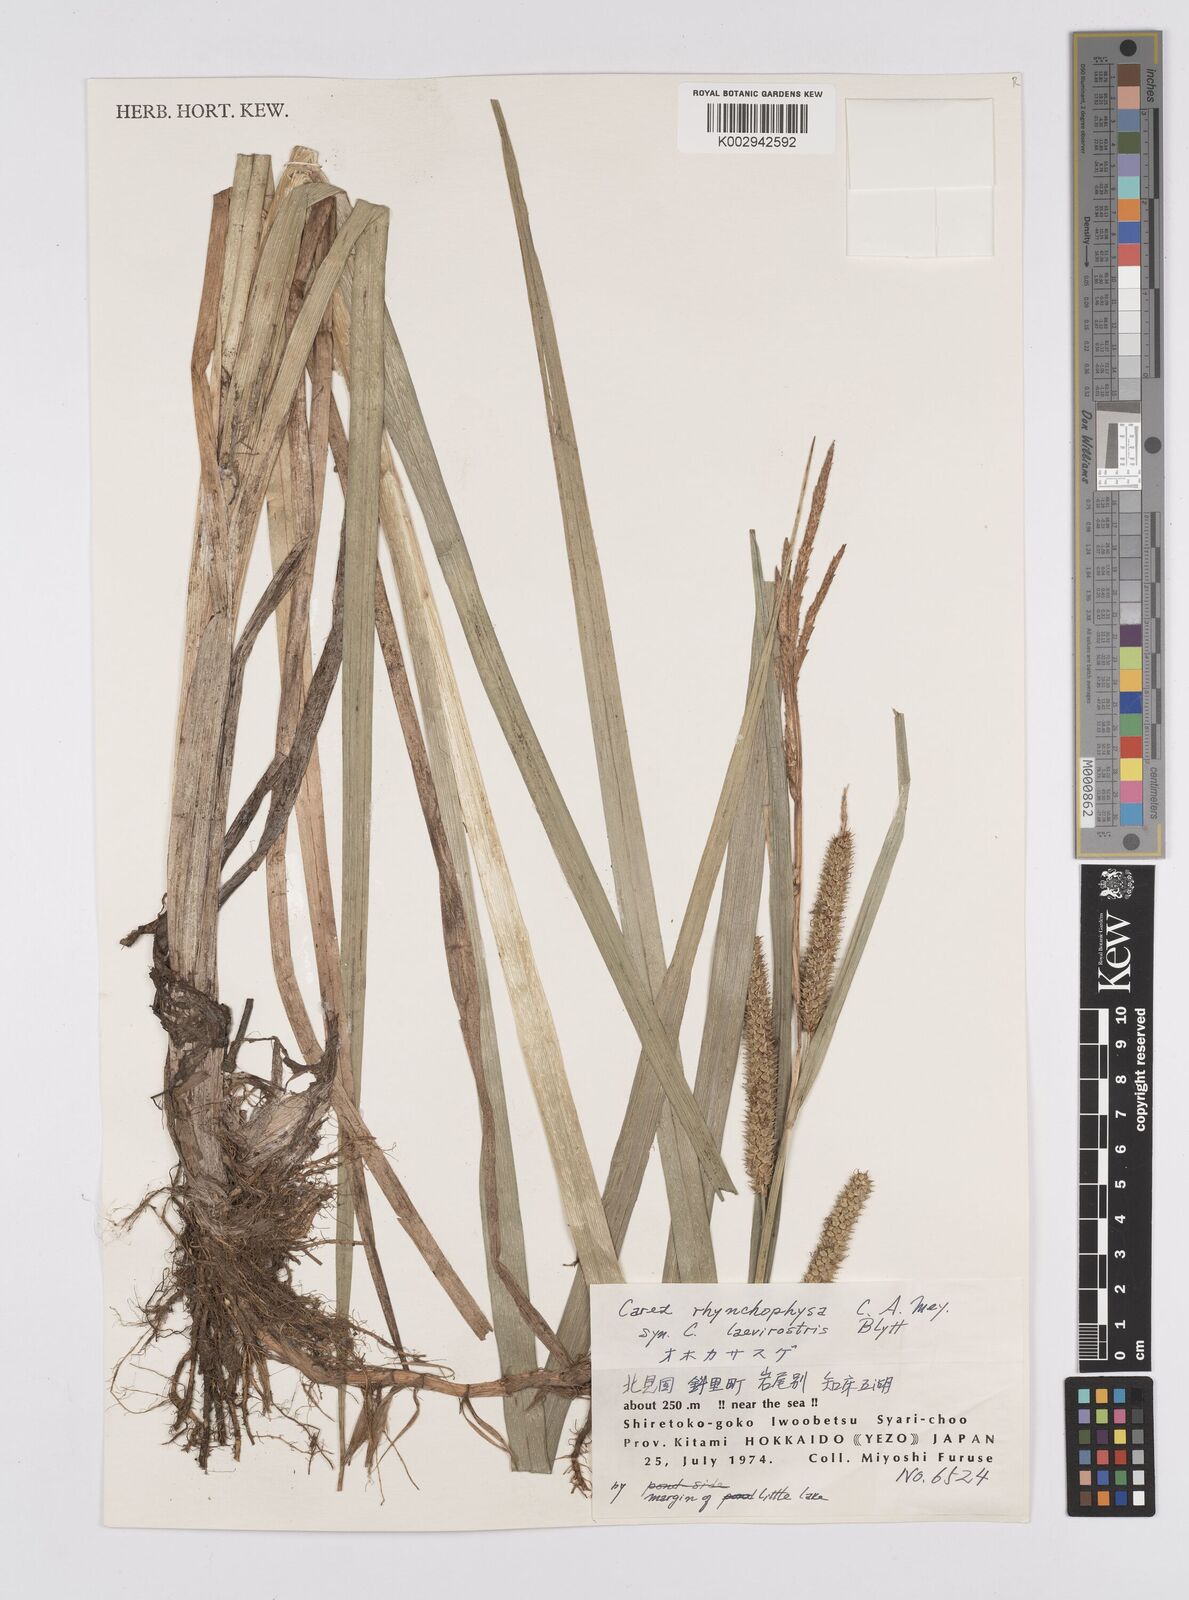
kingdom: Plantae
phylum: Tracheophyta
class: Liliopsida
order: Poales
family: Cyperaceae
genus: Carex
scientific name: Carex utriculata
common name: Beaked sedge
